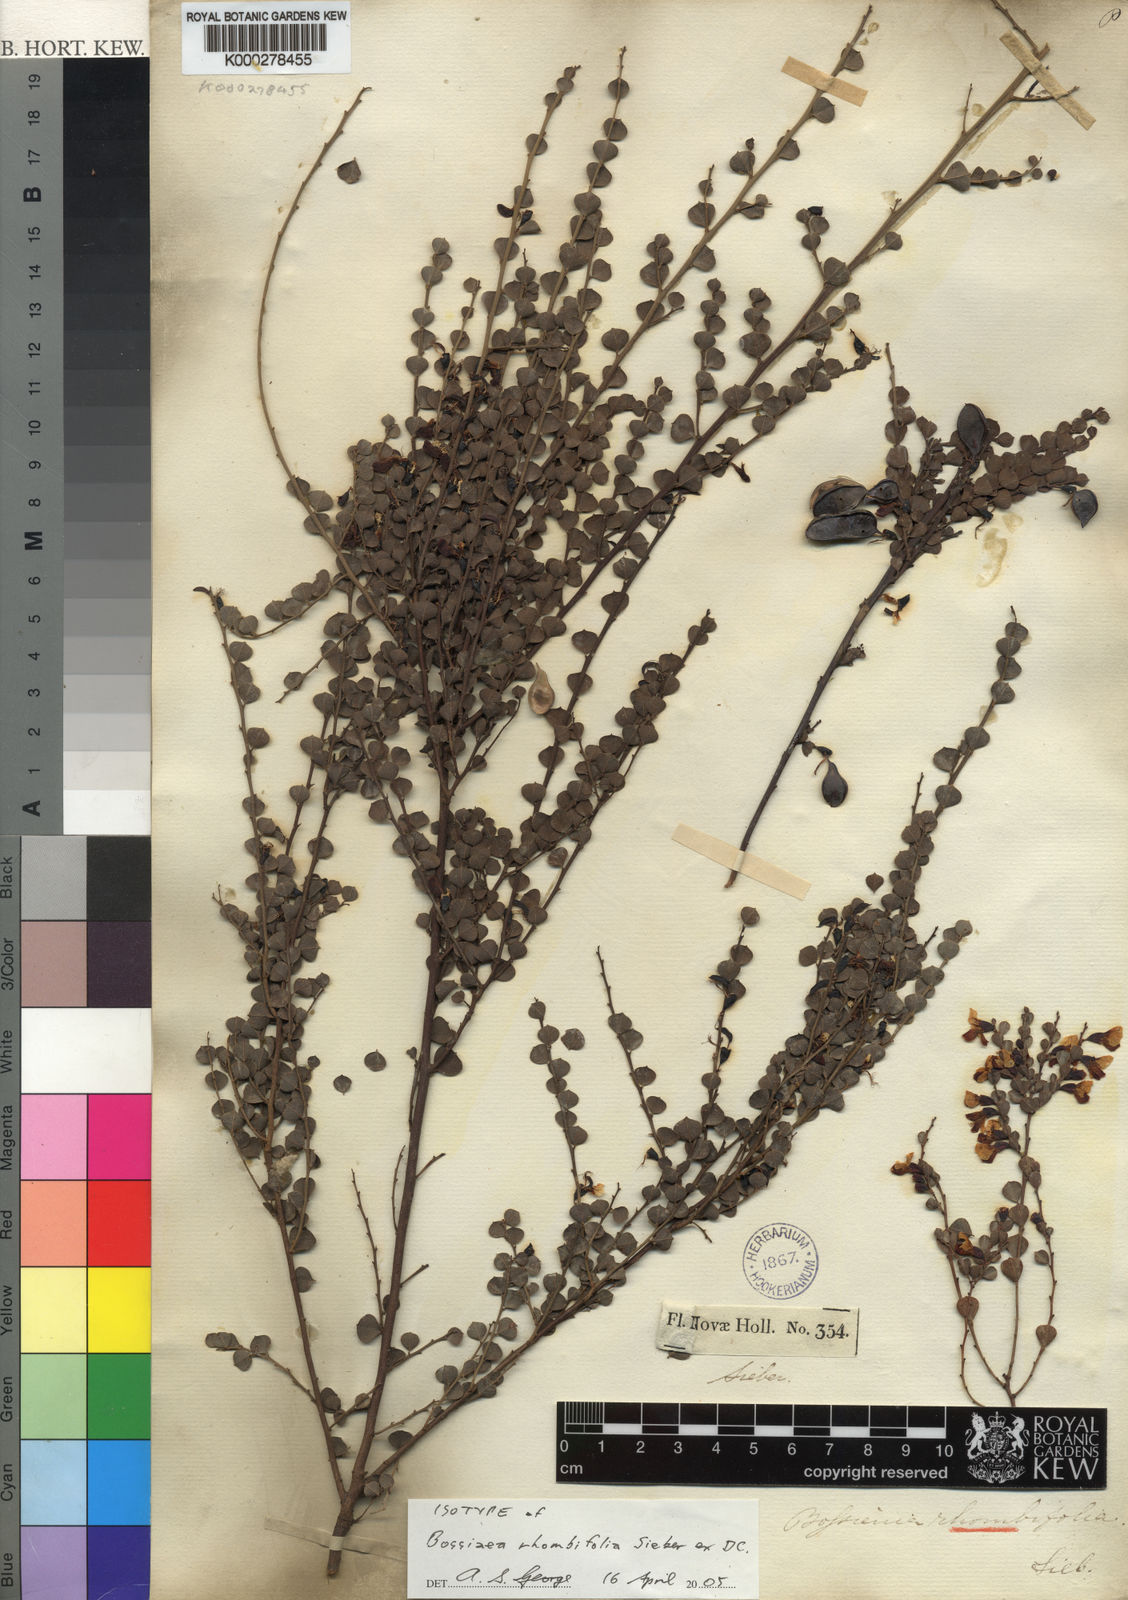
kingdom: Plantae
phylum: Tracheophyta
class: Magnoliopsida
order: Fabales
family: Fabaceae
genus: Bossiaea
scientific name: Bossiaea rhombifolia
